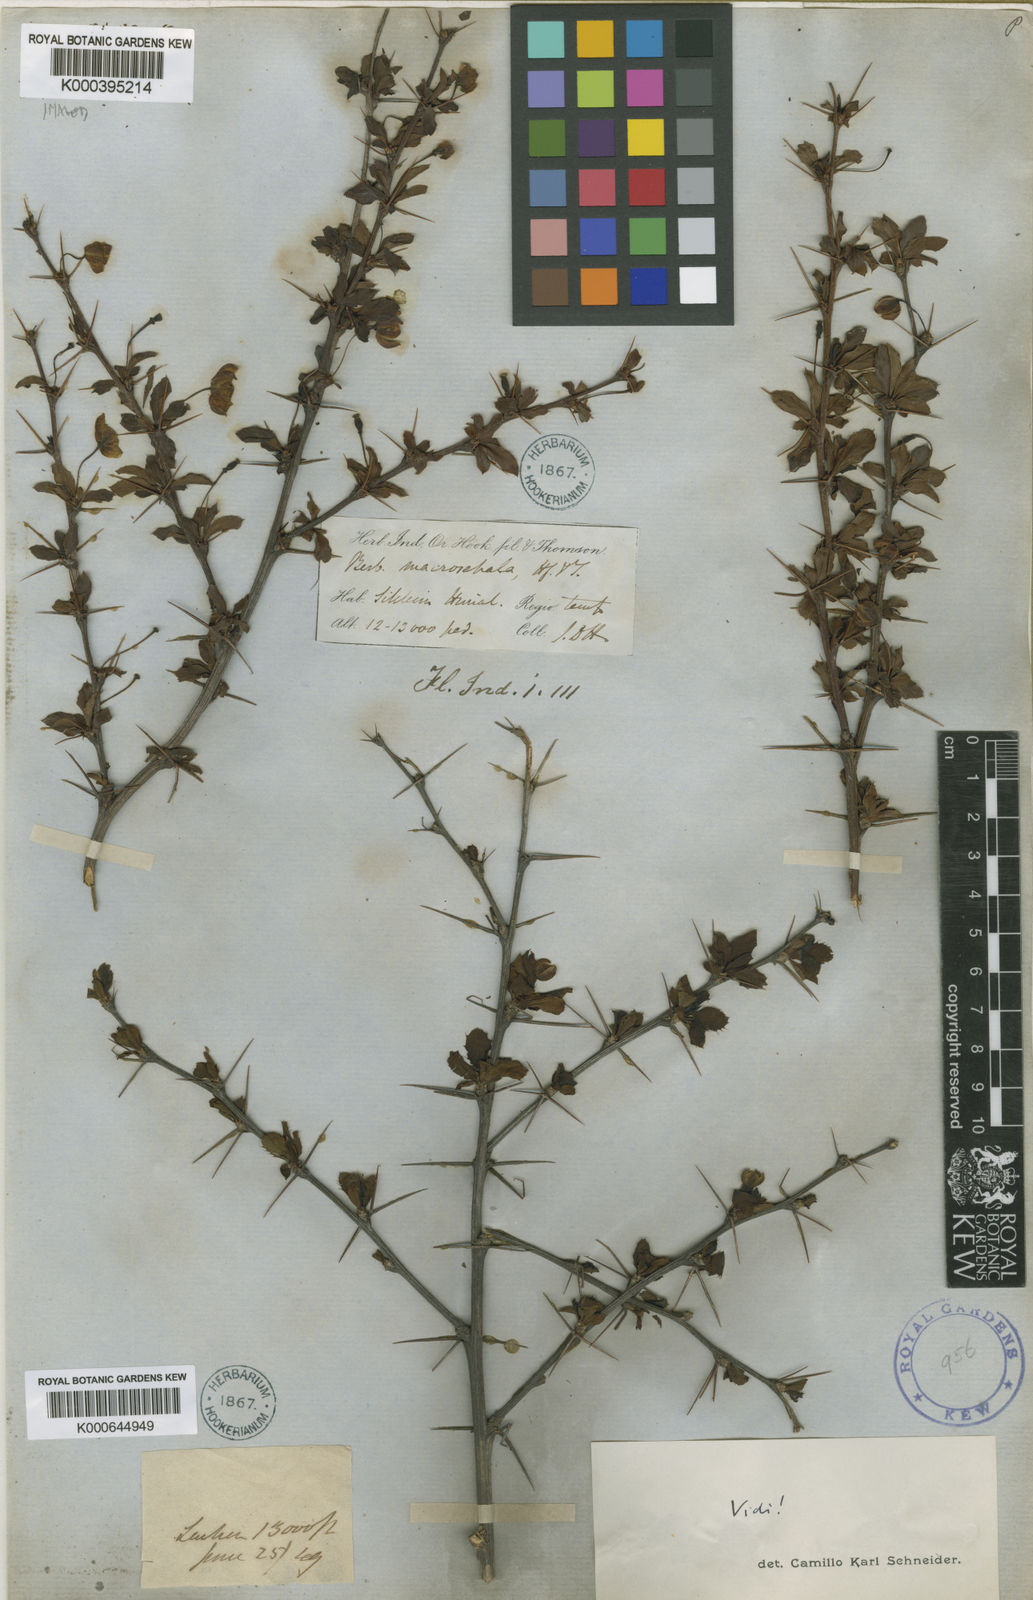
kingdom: Plantae
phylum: Tracheophyta
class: Magnoliopsida
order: Ranunculales
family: Berberidaceae
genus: Berberis
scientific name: Berberis macrosepala
